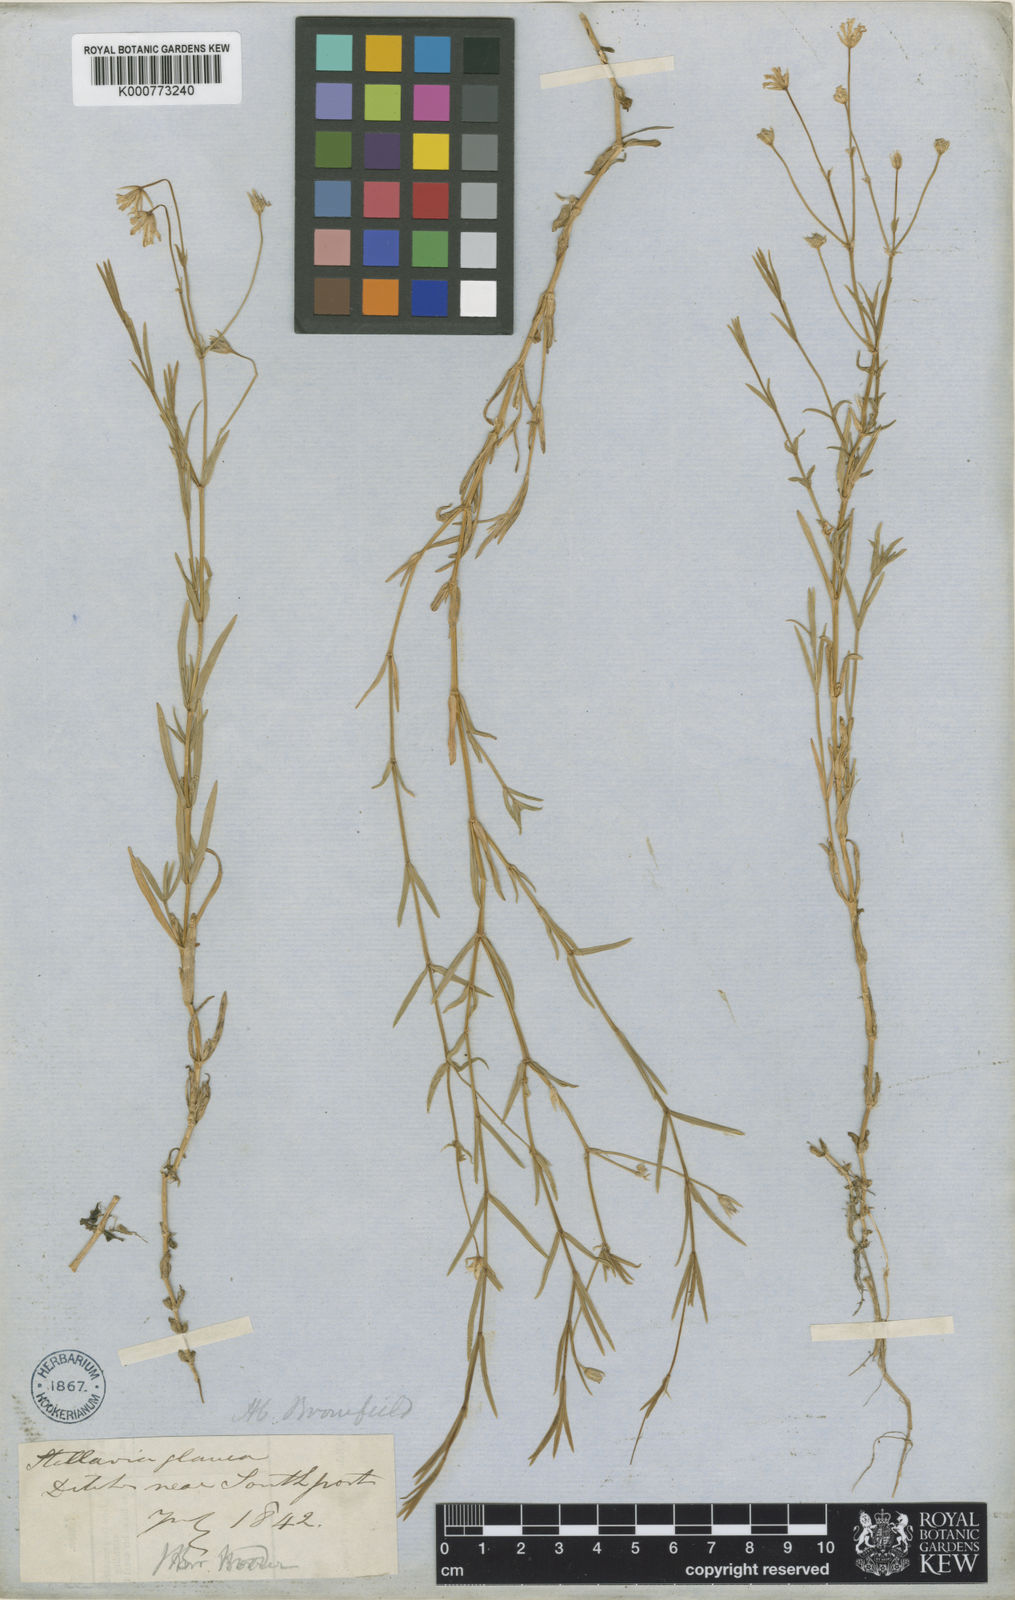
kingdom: Plantae
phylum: Tracheophyta
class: Magnoliopsida
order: Caryophyllales
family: Caryophyllaceae
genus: Stellaria
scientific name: Stellaria
